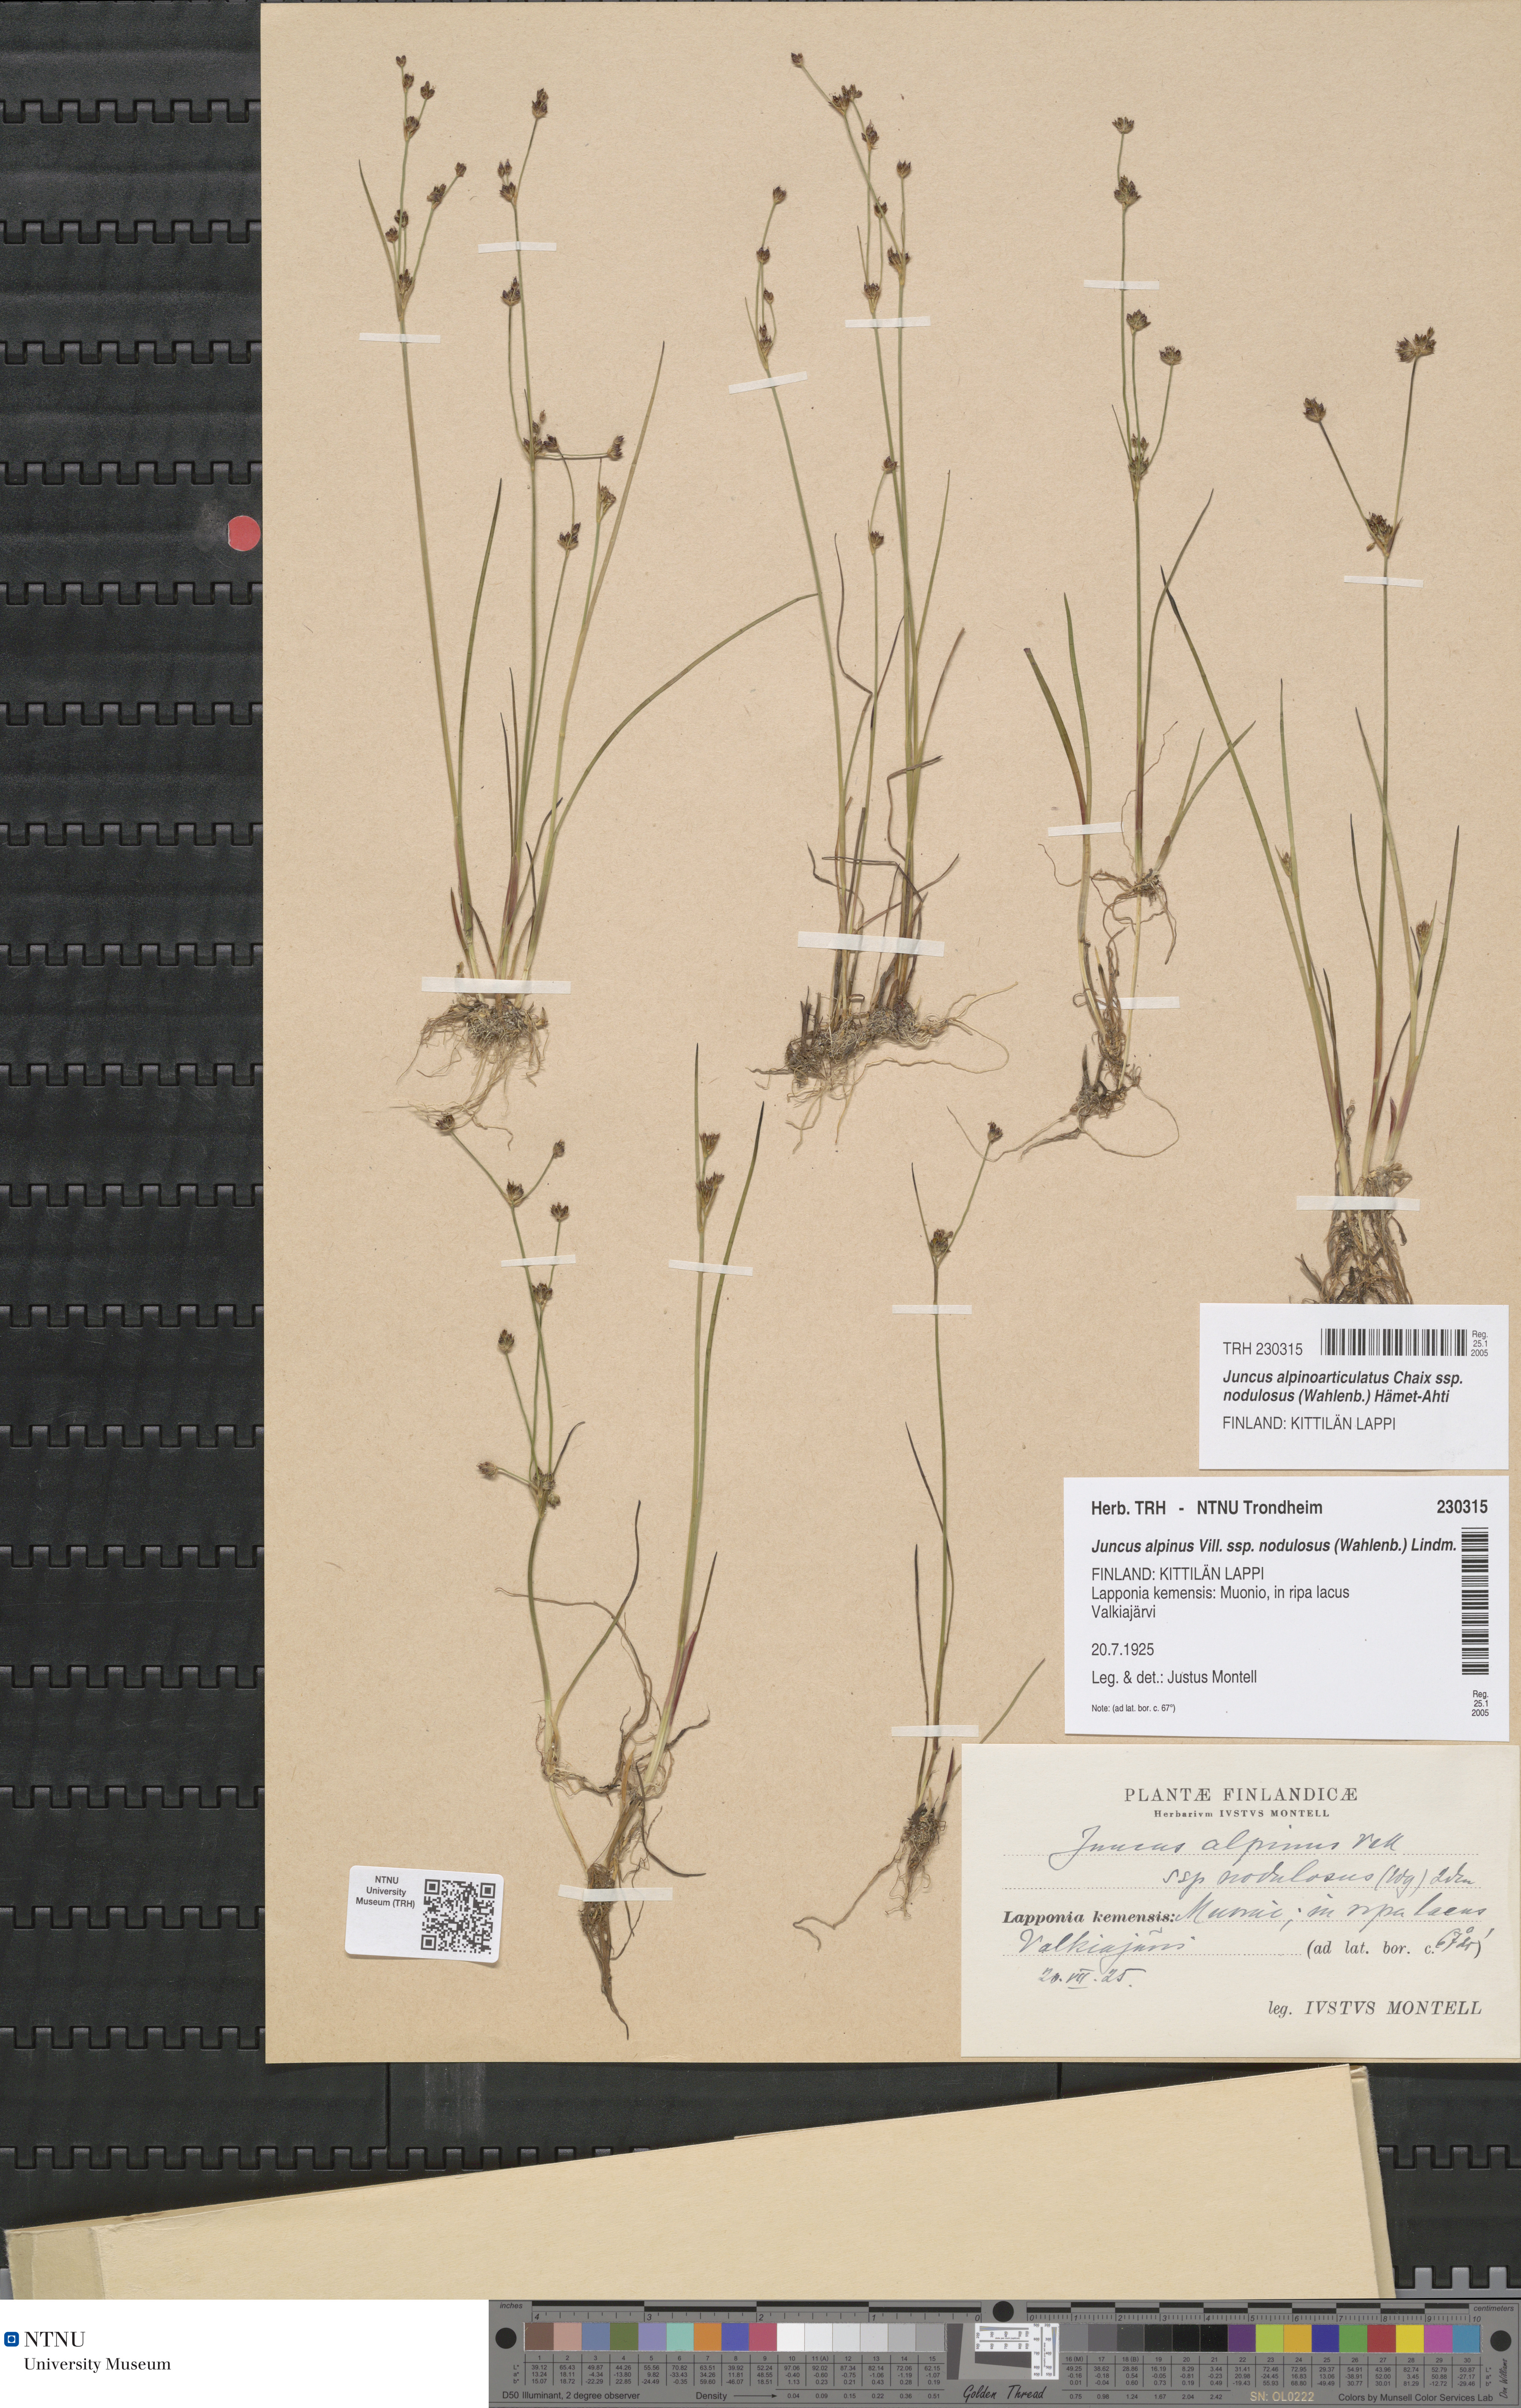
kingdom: Plantae
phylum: Tracheophyta
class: Liliopsida
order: Poales
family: Juncaceae
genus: Juncus
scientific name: Juncus alpinoarticulatus
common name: Alpine rush
